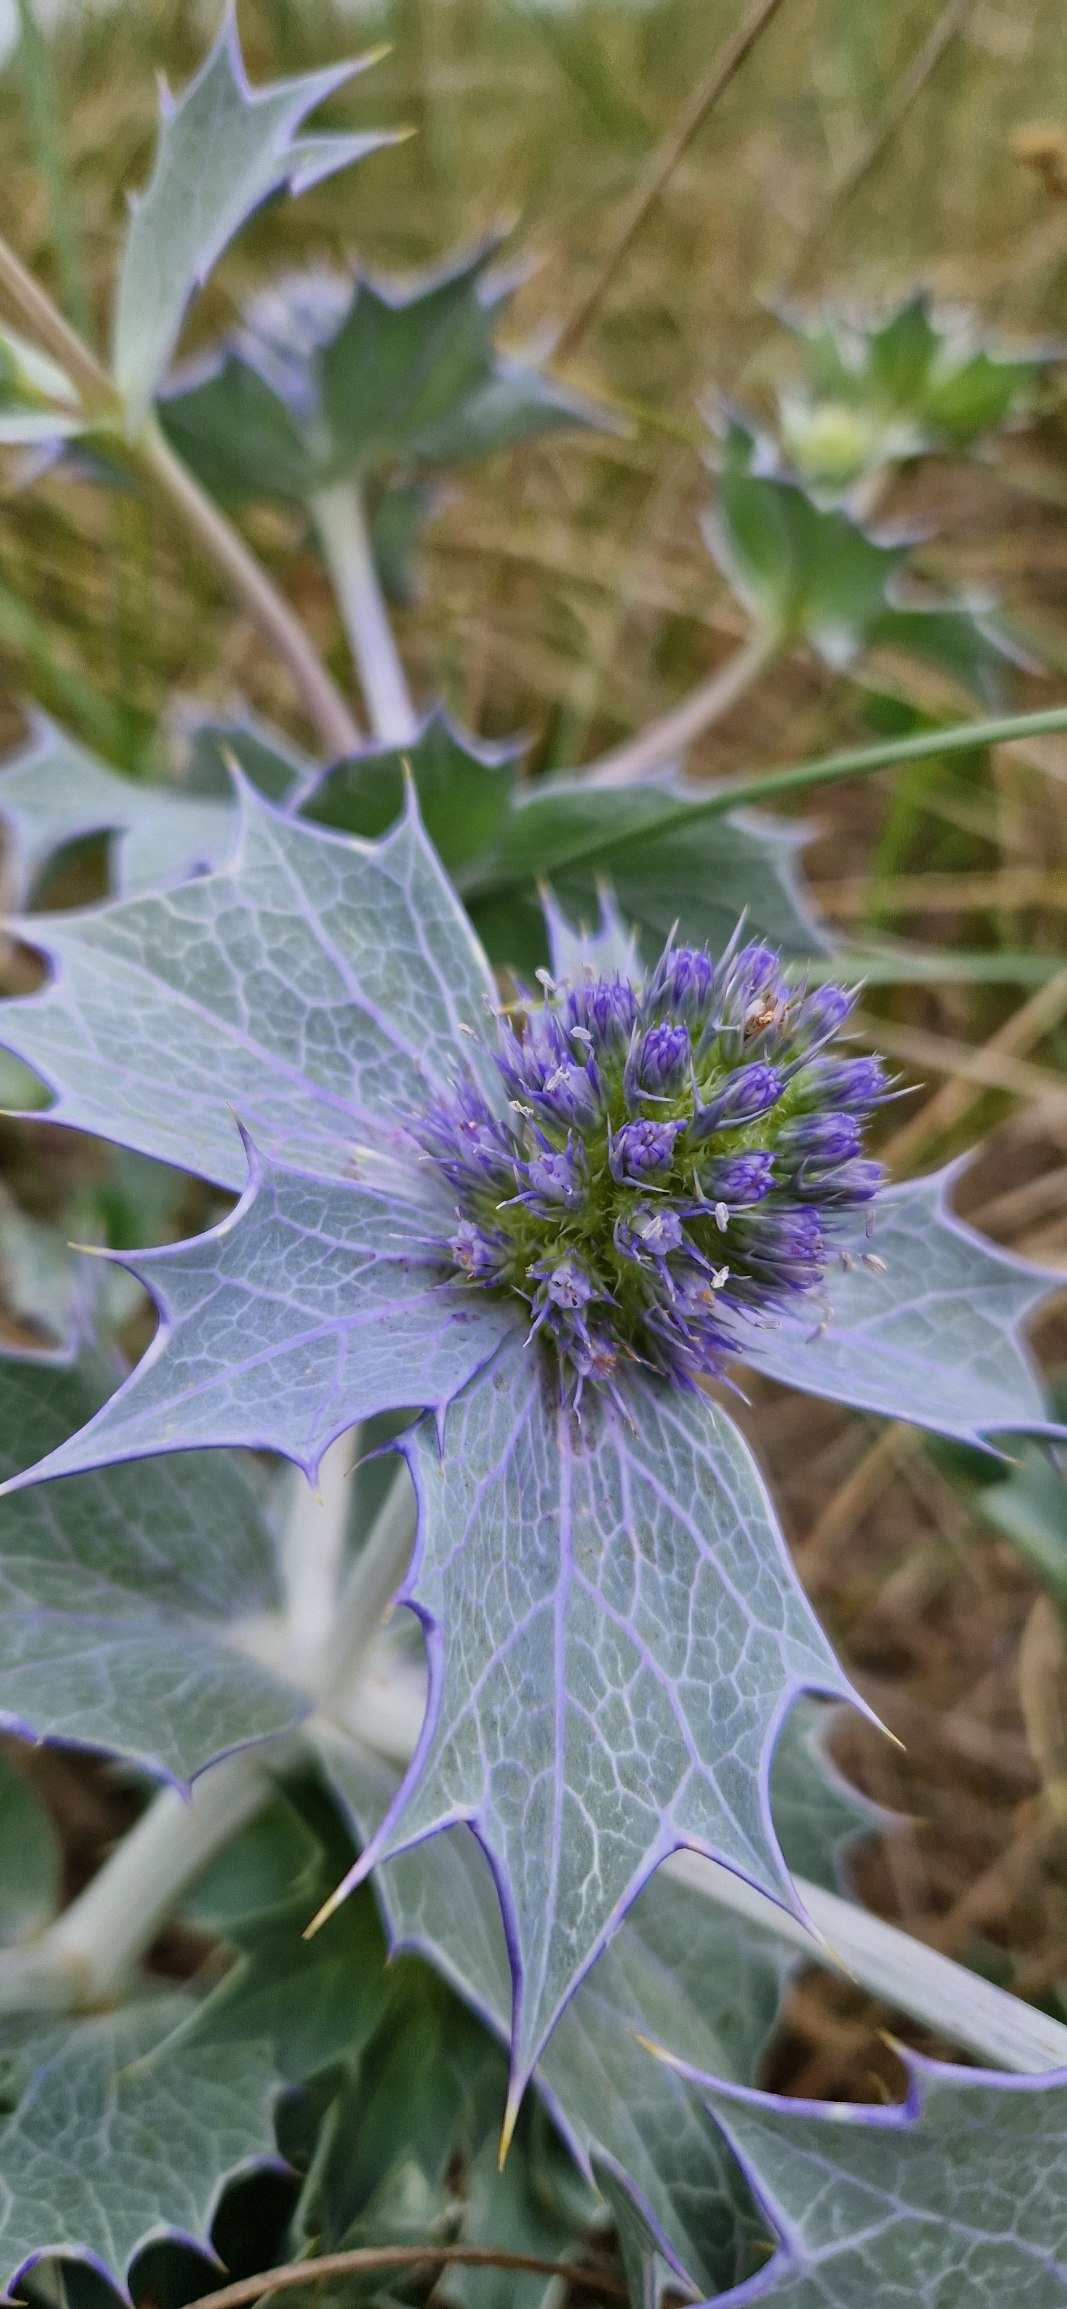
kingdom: Plantae
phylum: Tracheophyta
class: Magnoliopsida
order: Apiales
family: Apiaceae
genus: Eryngium
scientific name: Eryngium maritimum
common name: Strand-mandstro
